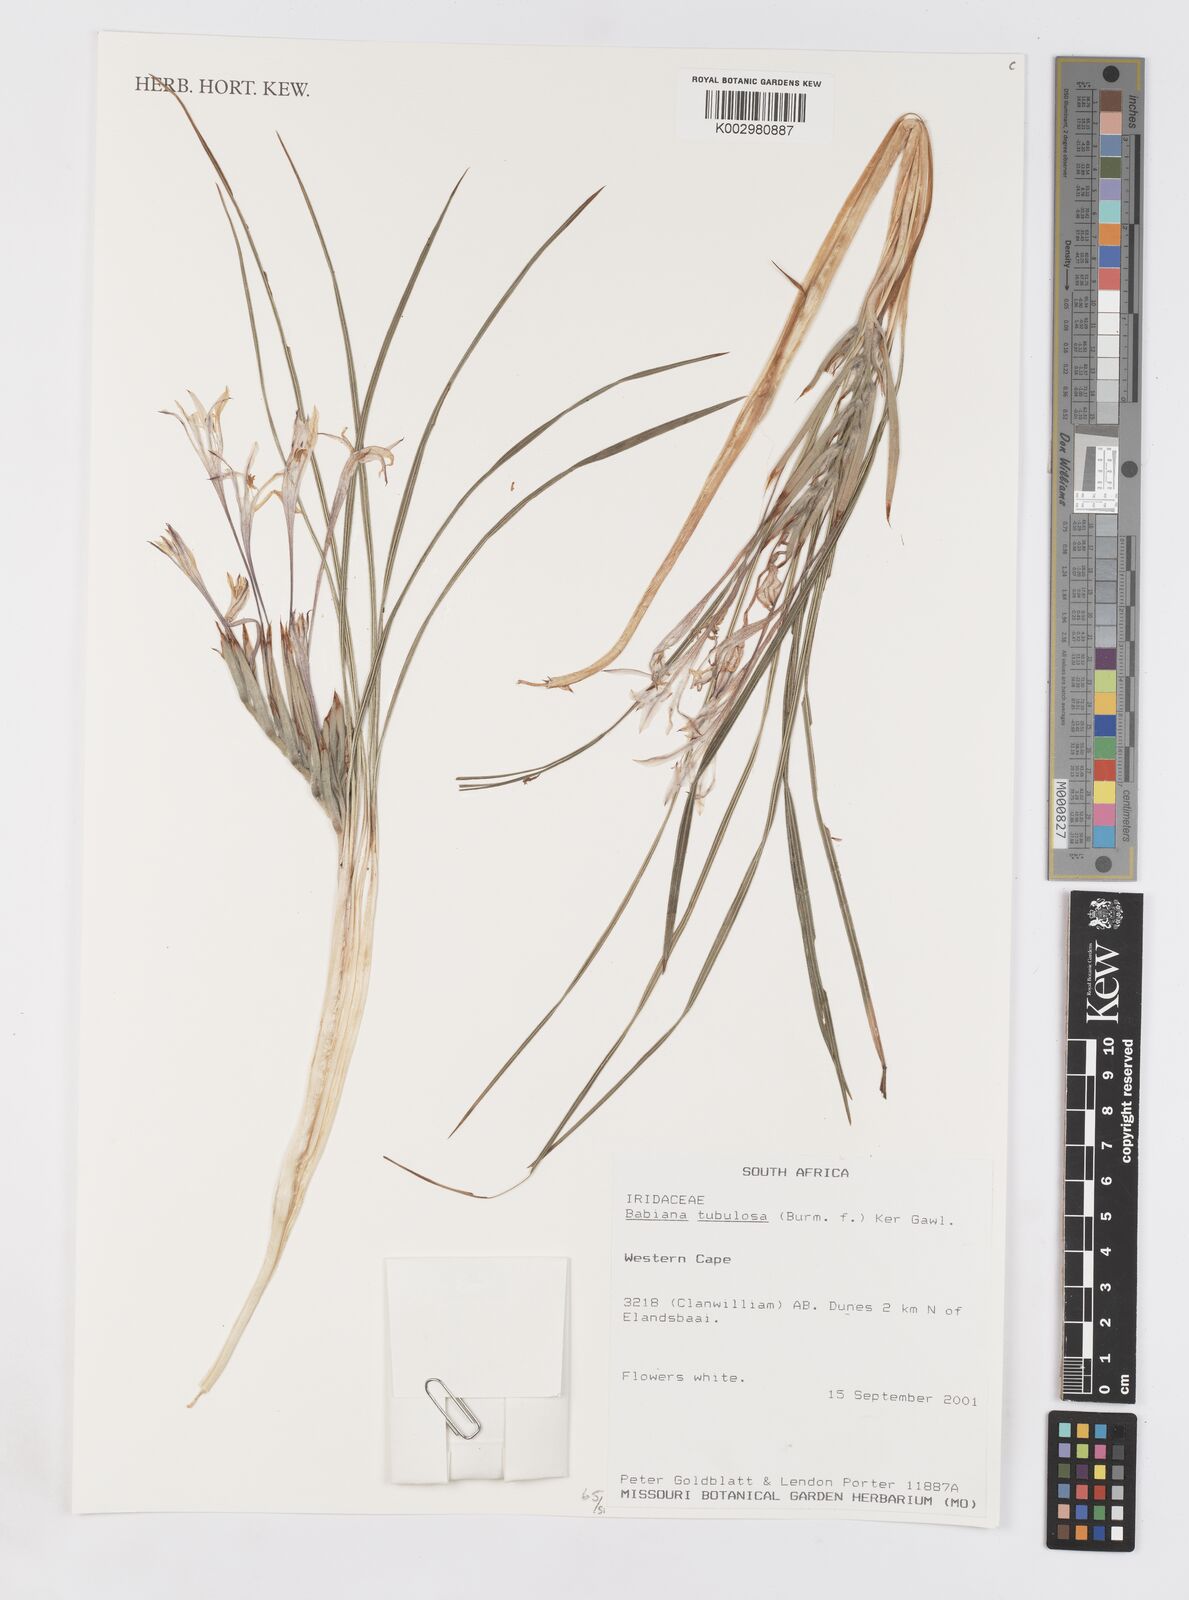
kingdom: Plantae
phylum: Tracheophyta
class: Liliopsida
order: Asparagales
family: Iridaceae
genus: Babiana
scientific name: Babiana tubulosa
